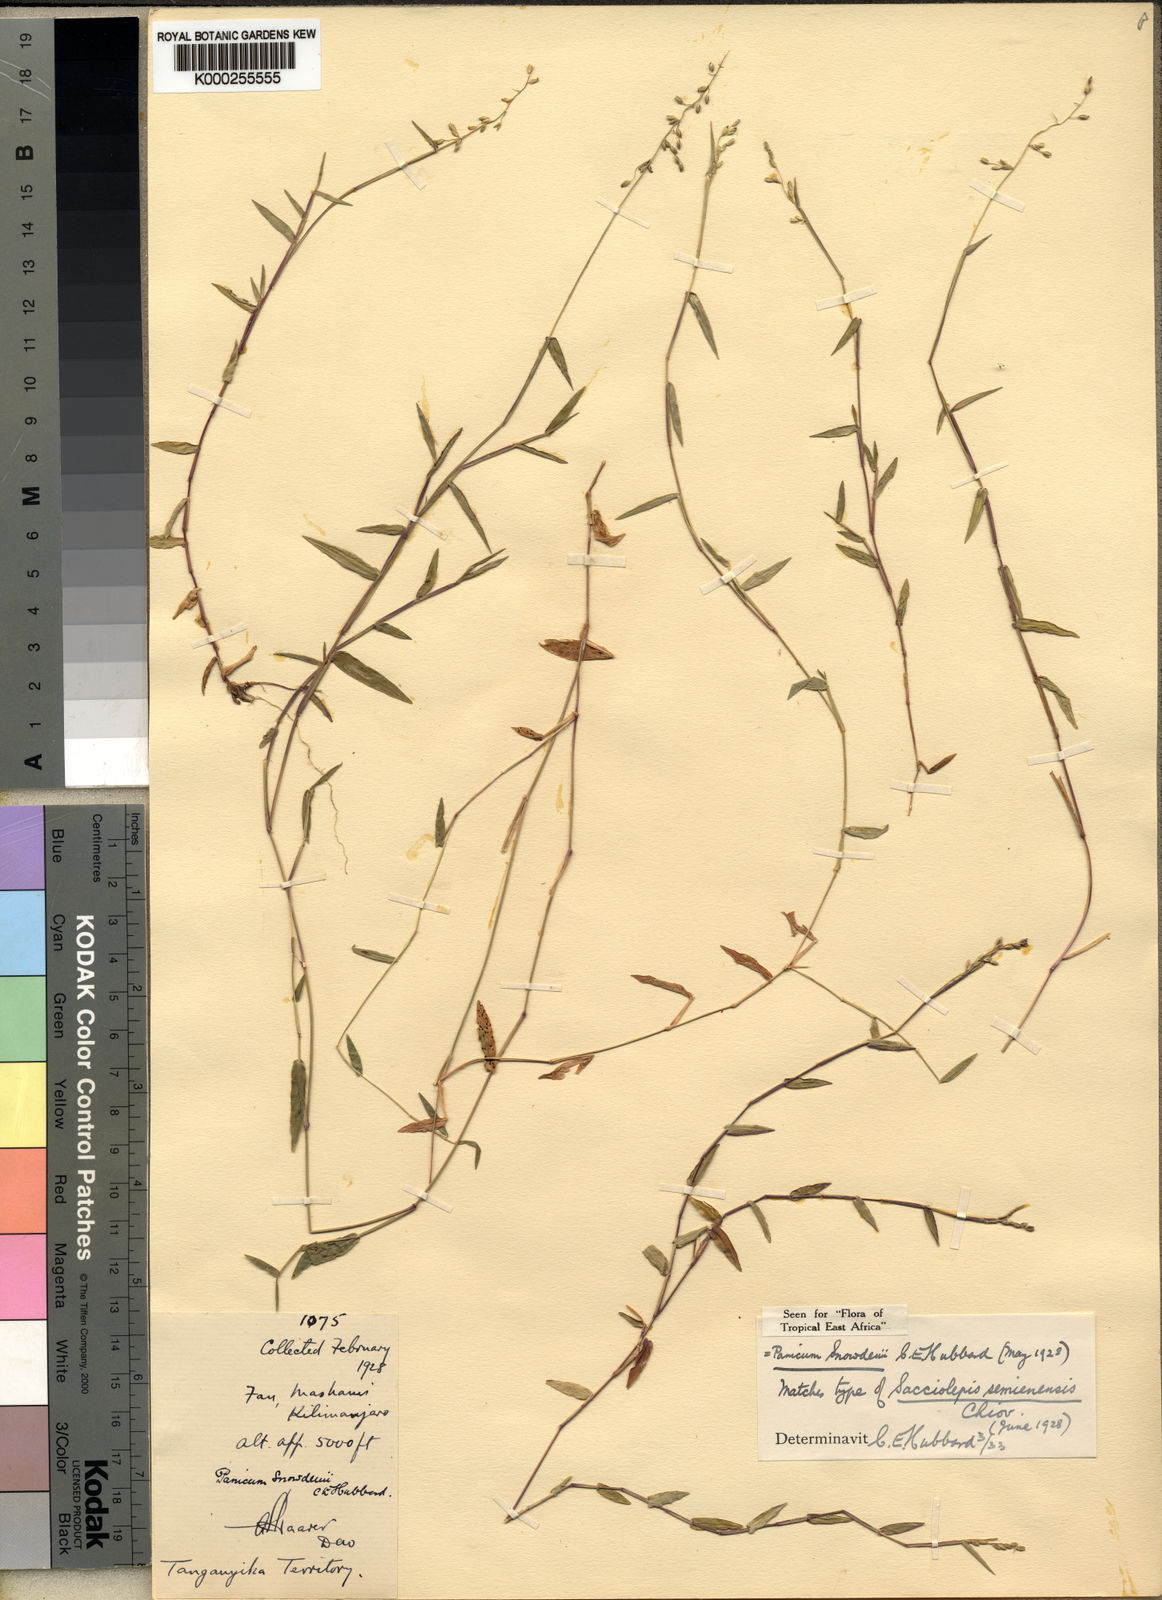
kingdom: Plantae
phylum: Tracheophyta
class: Liliopsida
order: Poales
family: Poaceae
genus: Sacciolepis
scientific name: Sacciolepis
